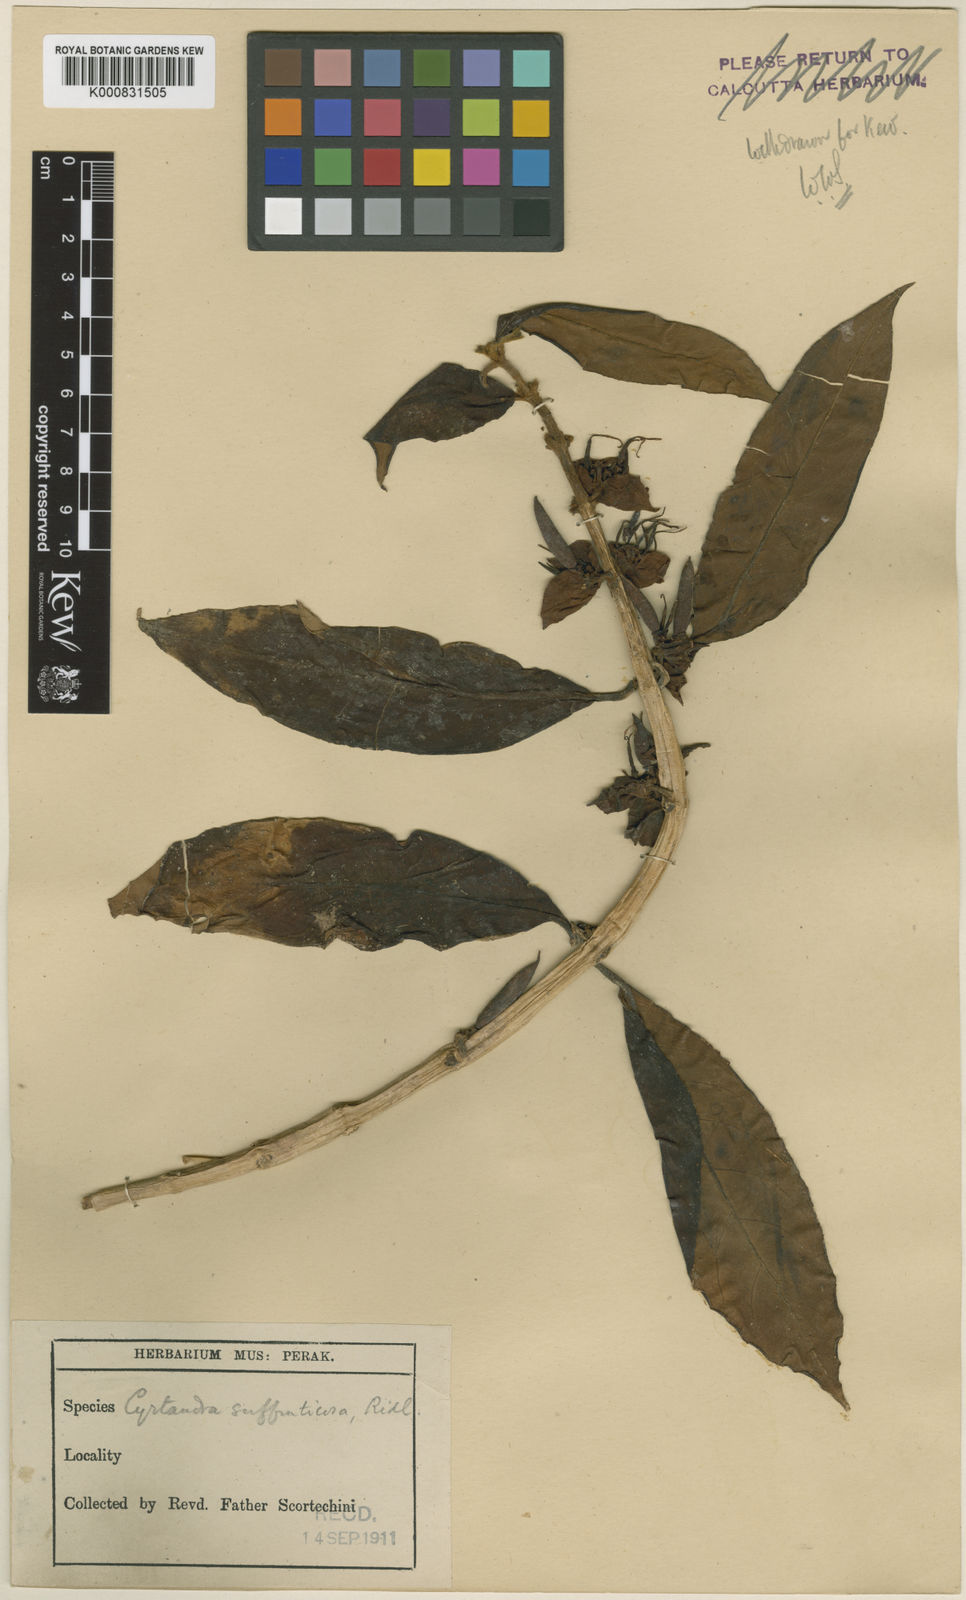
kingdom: Plantae
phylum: Tracheophyta
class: Magnoliopsida
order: Lamiales
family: Gesneriaceae
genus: Cyrtandra
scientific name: Cyrtandra suffruticosa
